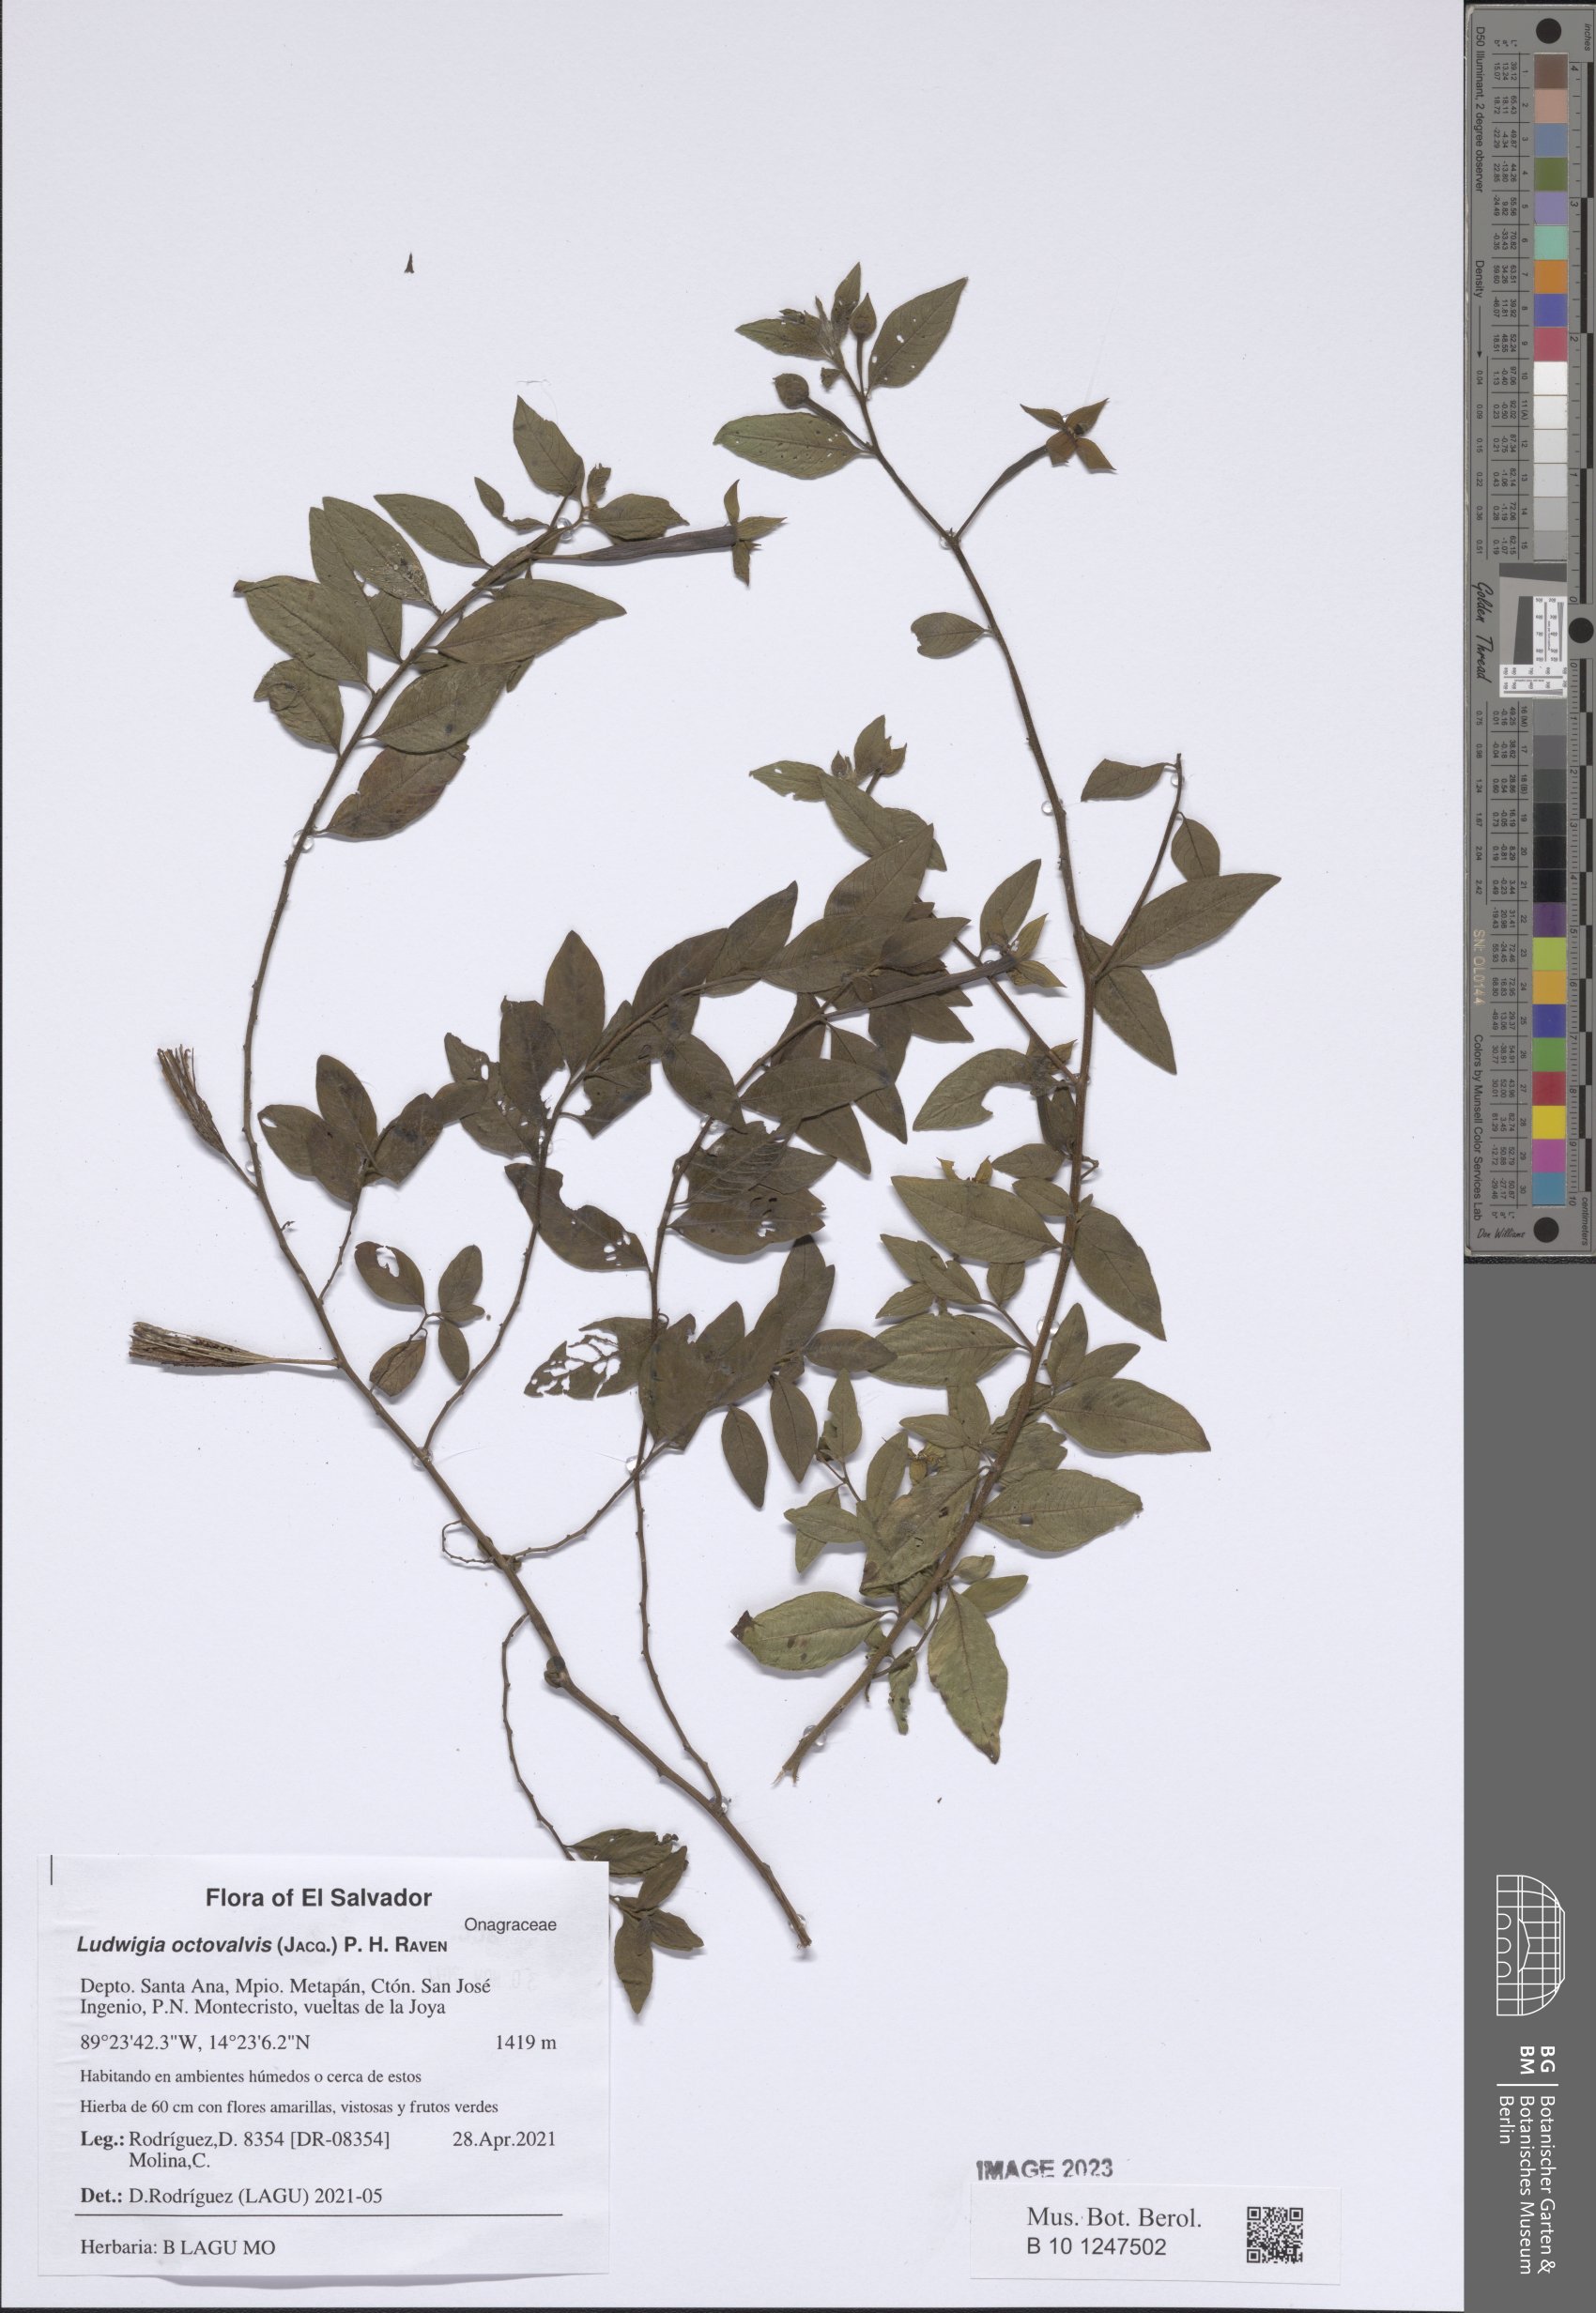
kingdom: Plantae
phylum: Tracheophyta
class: Magnoliopsida
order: Myrtales
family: Onagraceae
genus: Ludwigia
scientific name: Ludwigia octovalvis
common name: Water-primrose
